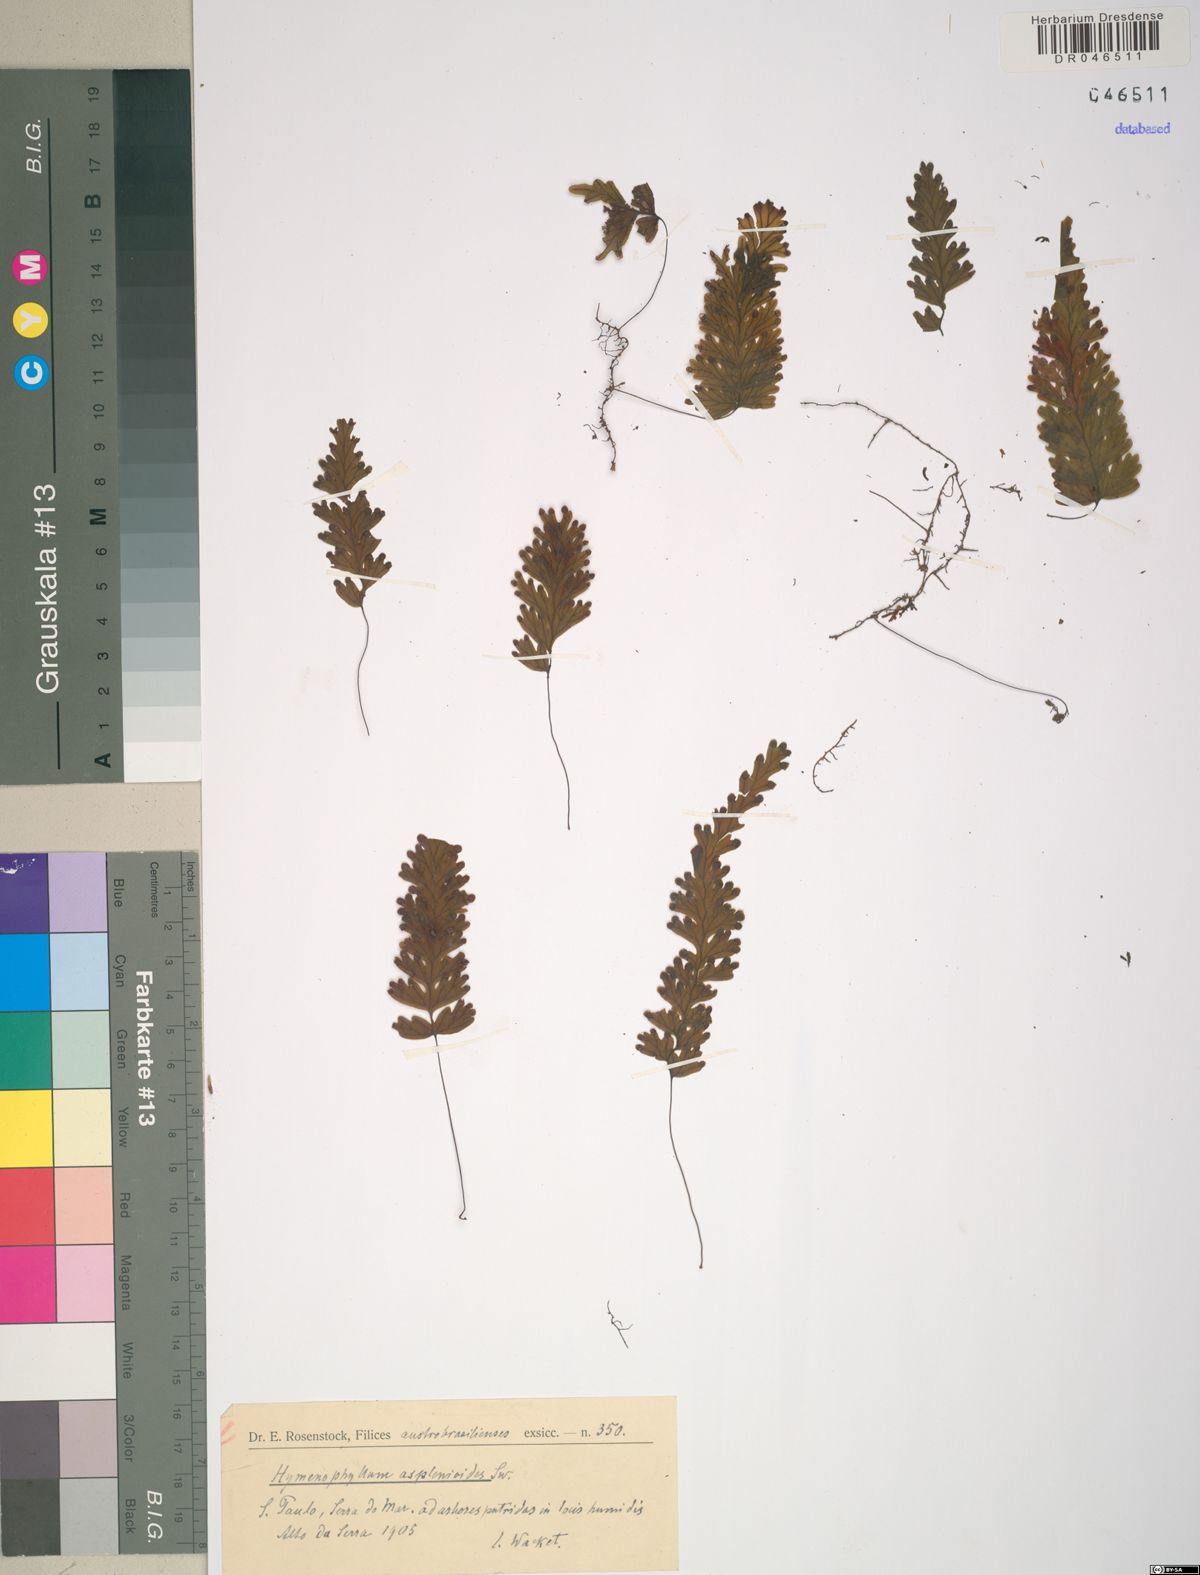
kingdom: Plantae
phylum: Tracheophyta
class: Polypodiopsida
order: Hymenophyllales
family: Hymenophyllaceae
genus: Hymenophyllum
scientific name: Hymenophyllum asplenioides
